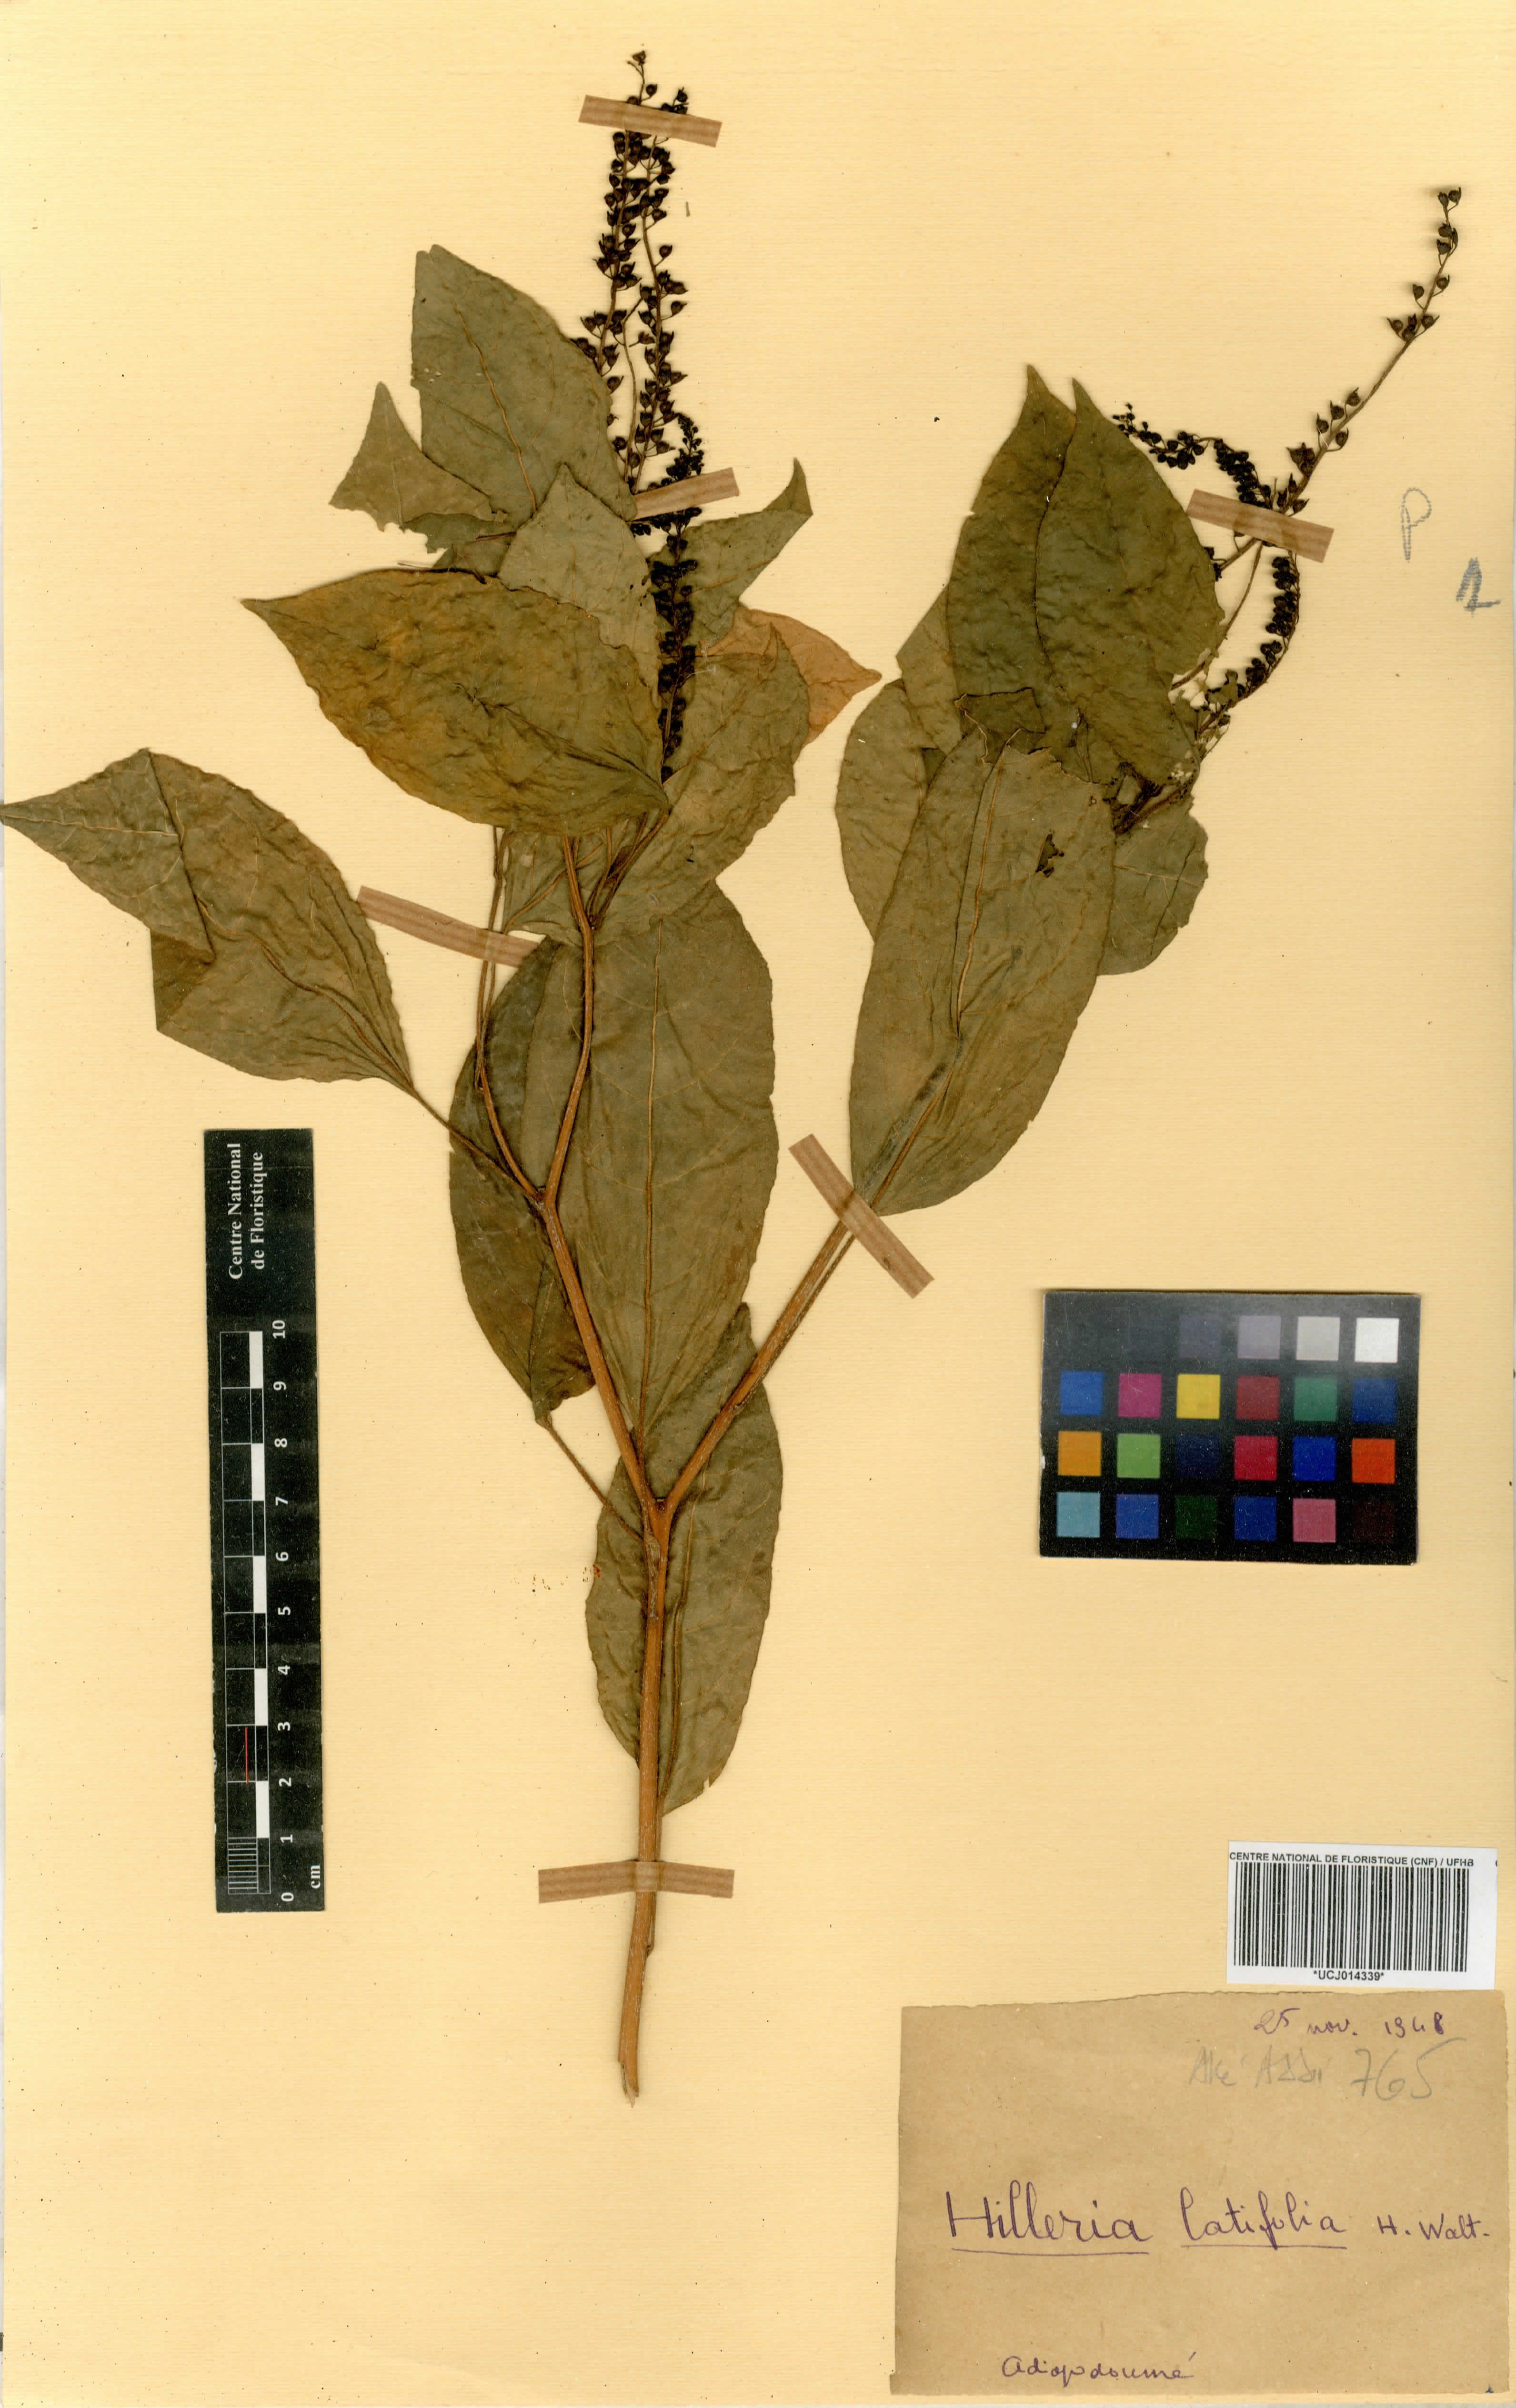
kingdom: Plantae
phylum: Tracheophyta
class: Magnoliopsida
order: Caryophyllales
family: Phytolaccaceae
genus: Hilleria
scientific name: Hilleria latifolia
